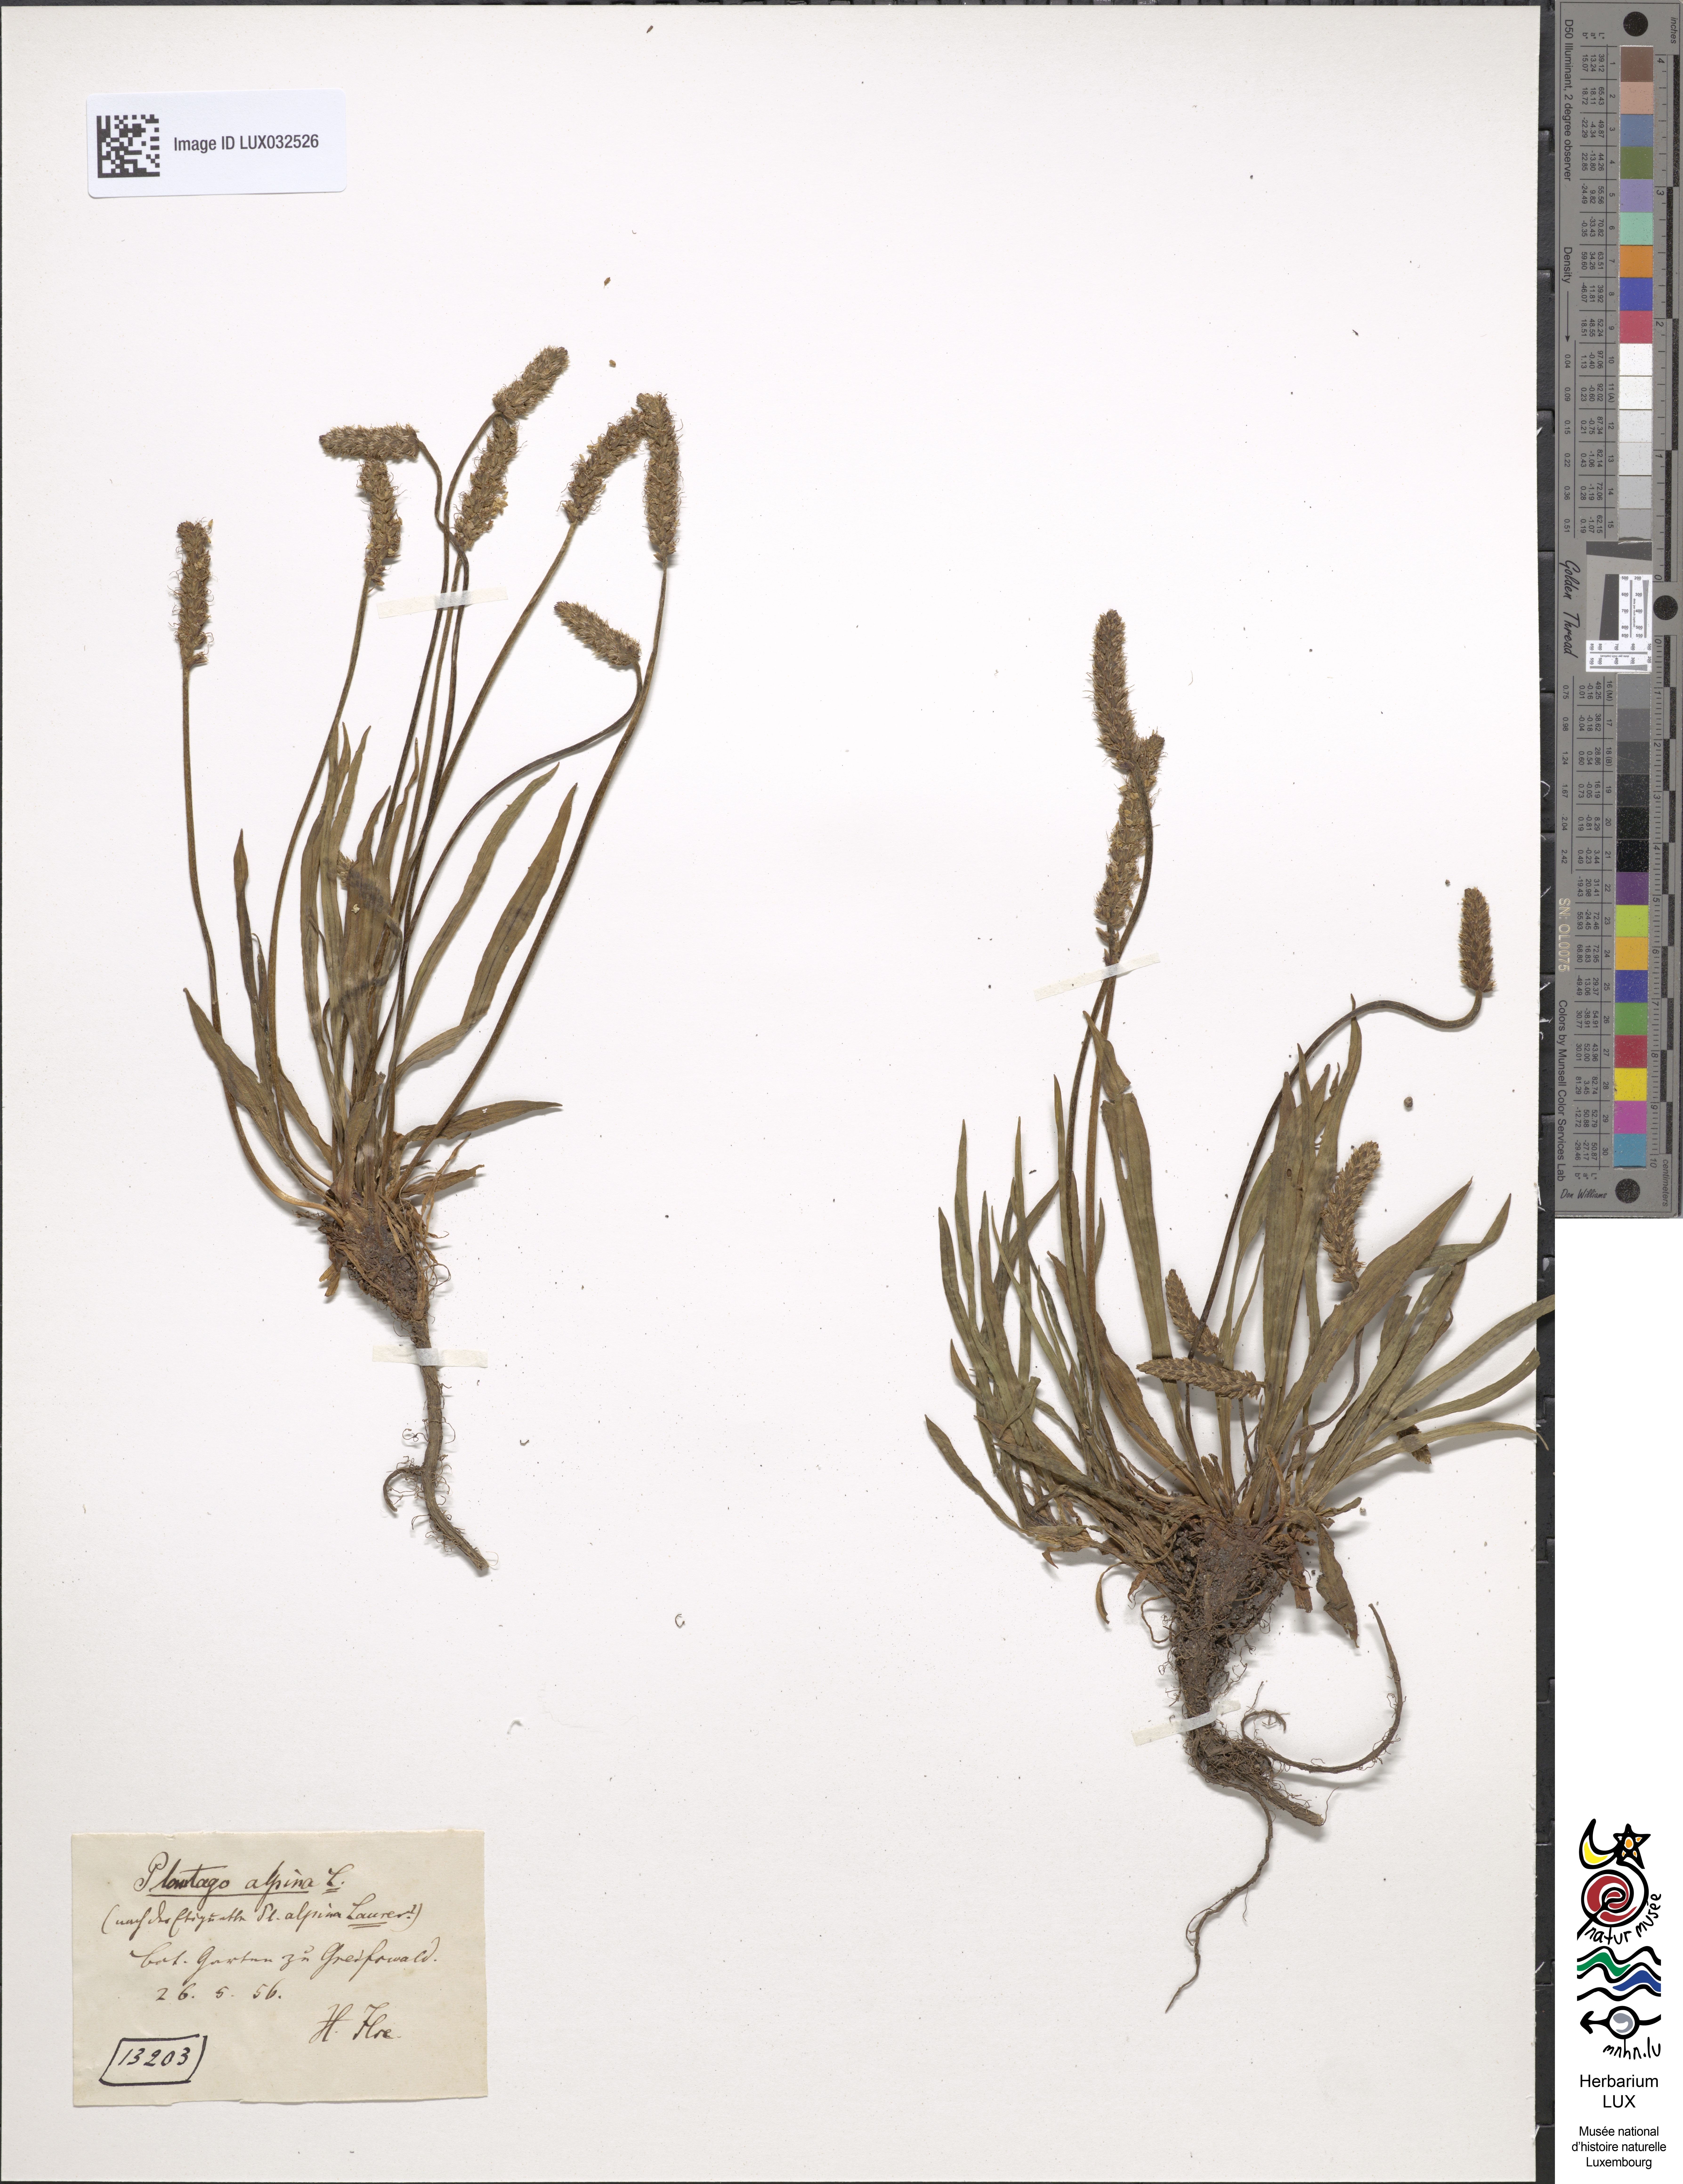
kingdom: Plantae
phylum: Tracheophyta
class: Magnoliopsida
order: Lamiales
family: Plantaginaceae
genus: Plantago
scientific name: Plantago alpina
